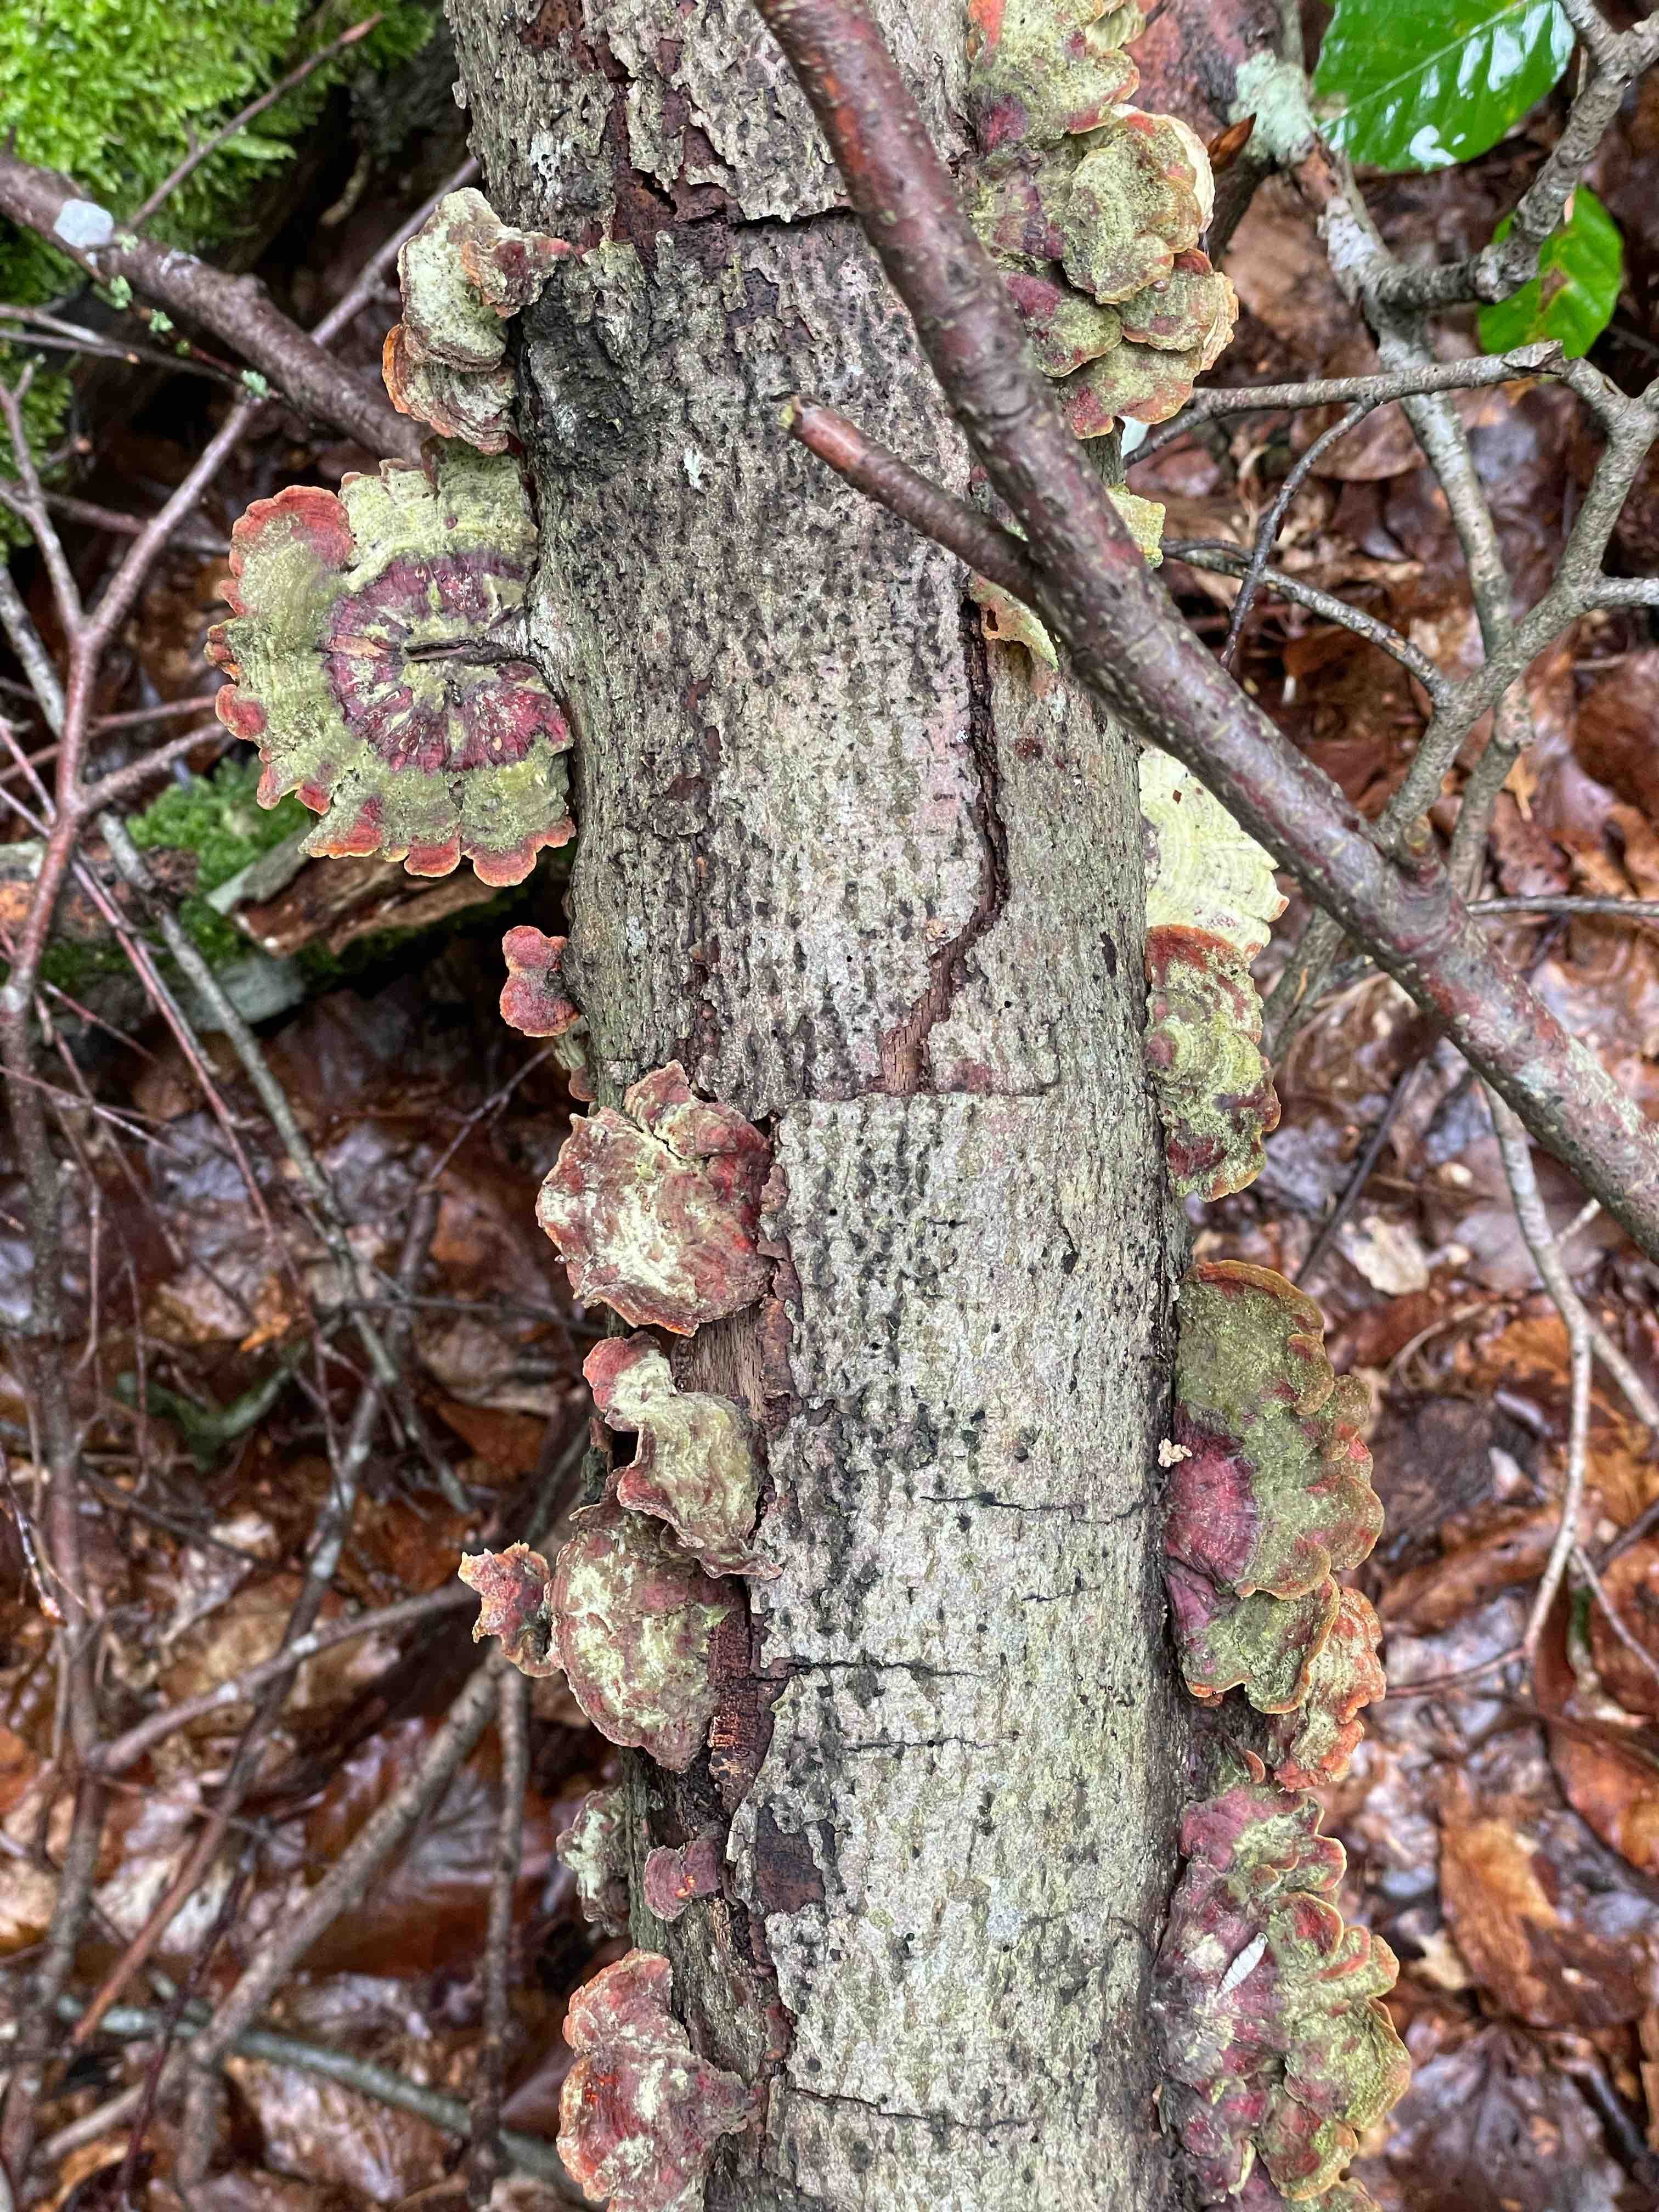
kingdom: Fungi
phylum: Basidiomycota
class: Agaricomycetes
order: Russulales
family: Stereaceae
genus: Stereum
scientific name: Stereum subtomentosum
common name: smuk lædersvamp
